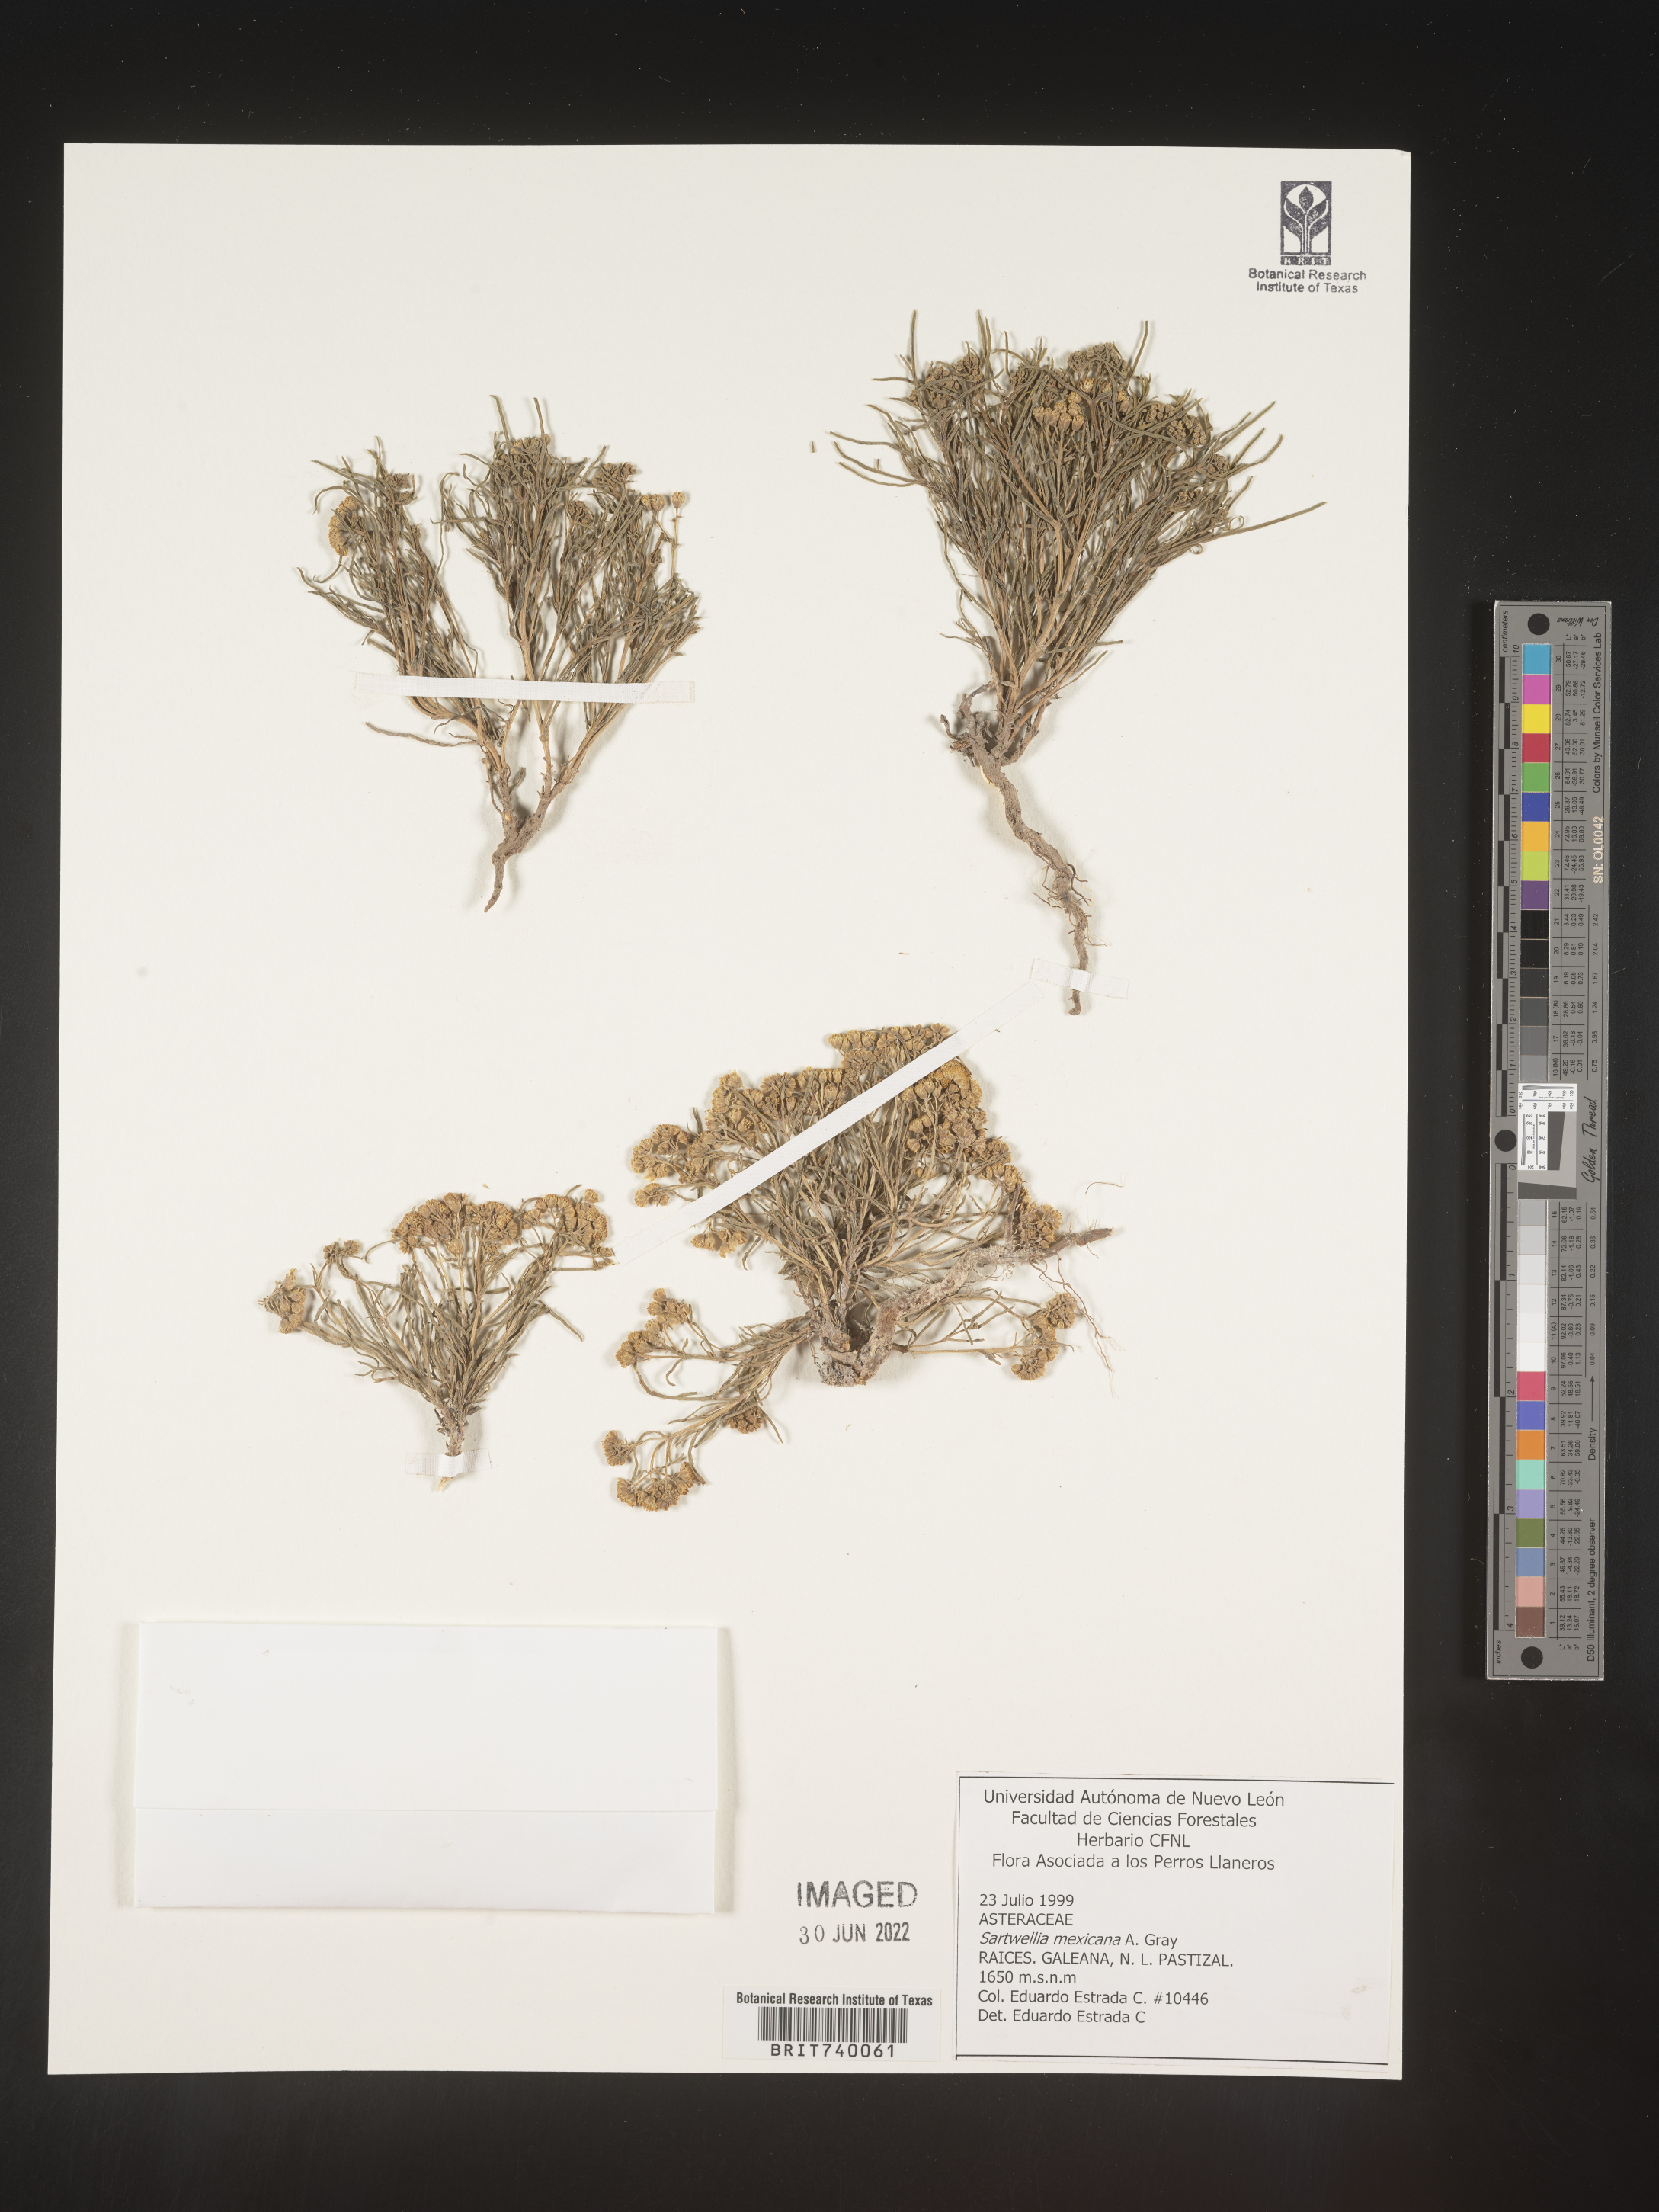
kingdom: Plantae
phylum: Tracheophyta
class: Magnoliopsida
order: Asterales
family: Asteraceae
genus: Sartwellia
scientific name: Sartwellia
